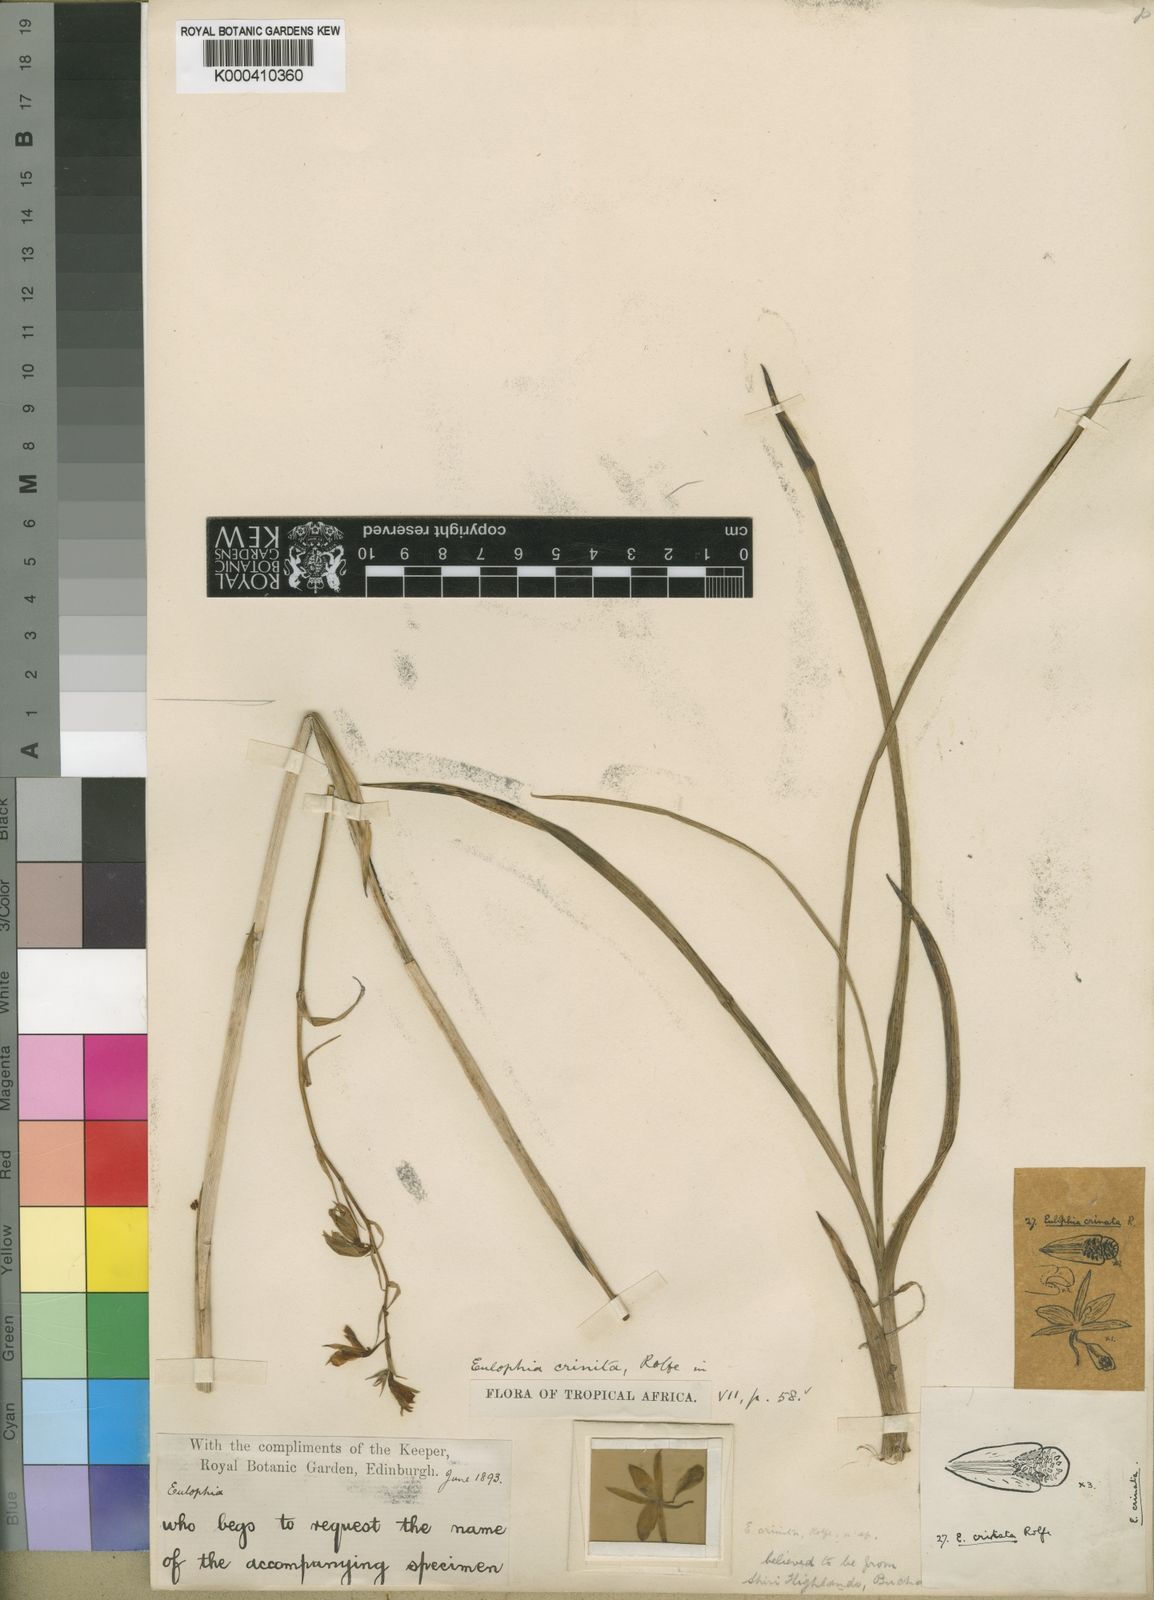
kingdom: Plantae
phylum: Tracheophyta
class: Liliopsida
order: Asparagales
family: Orchidaceae
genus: Eulophia
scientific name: Eulophia hians
